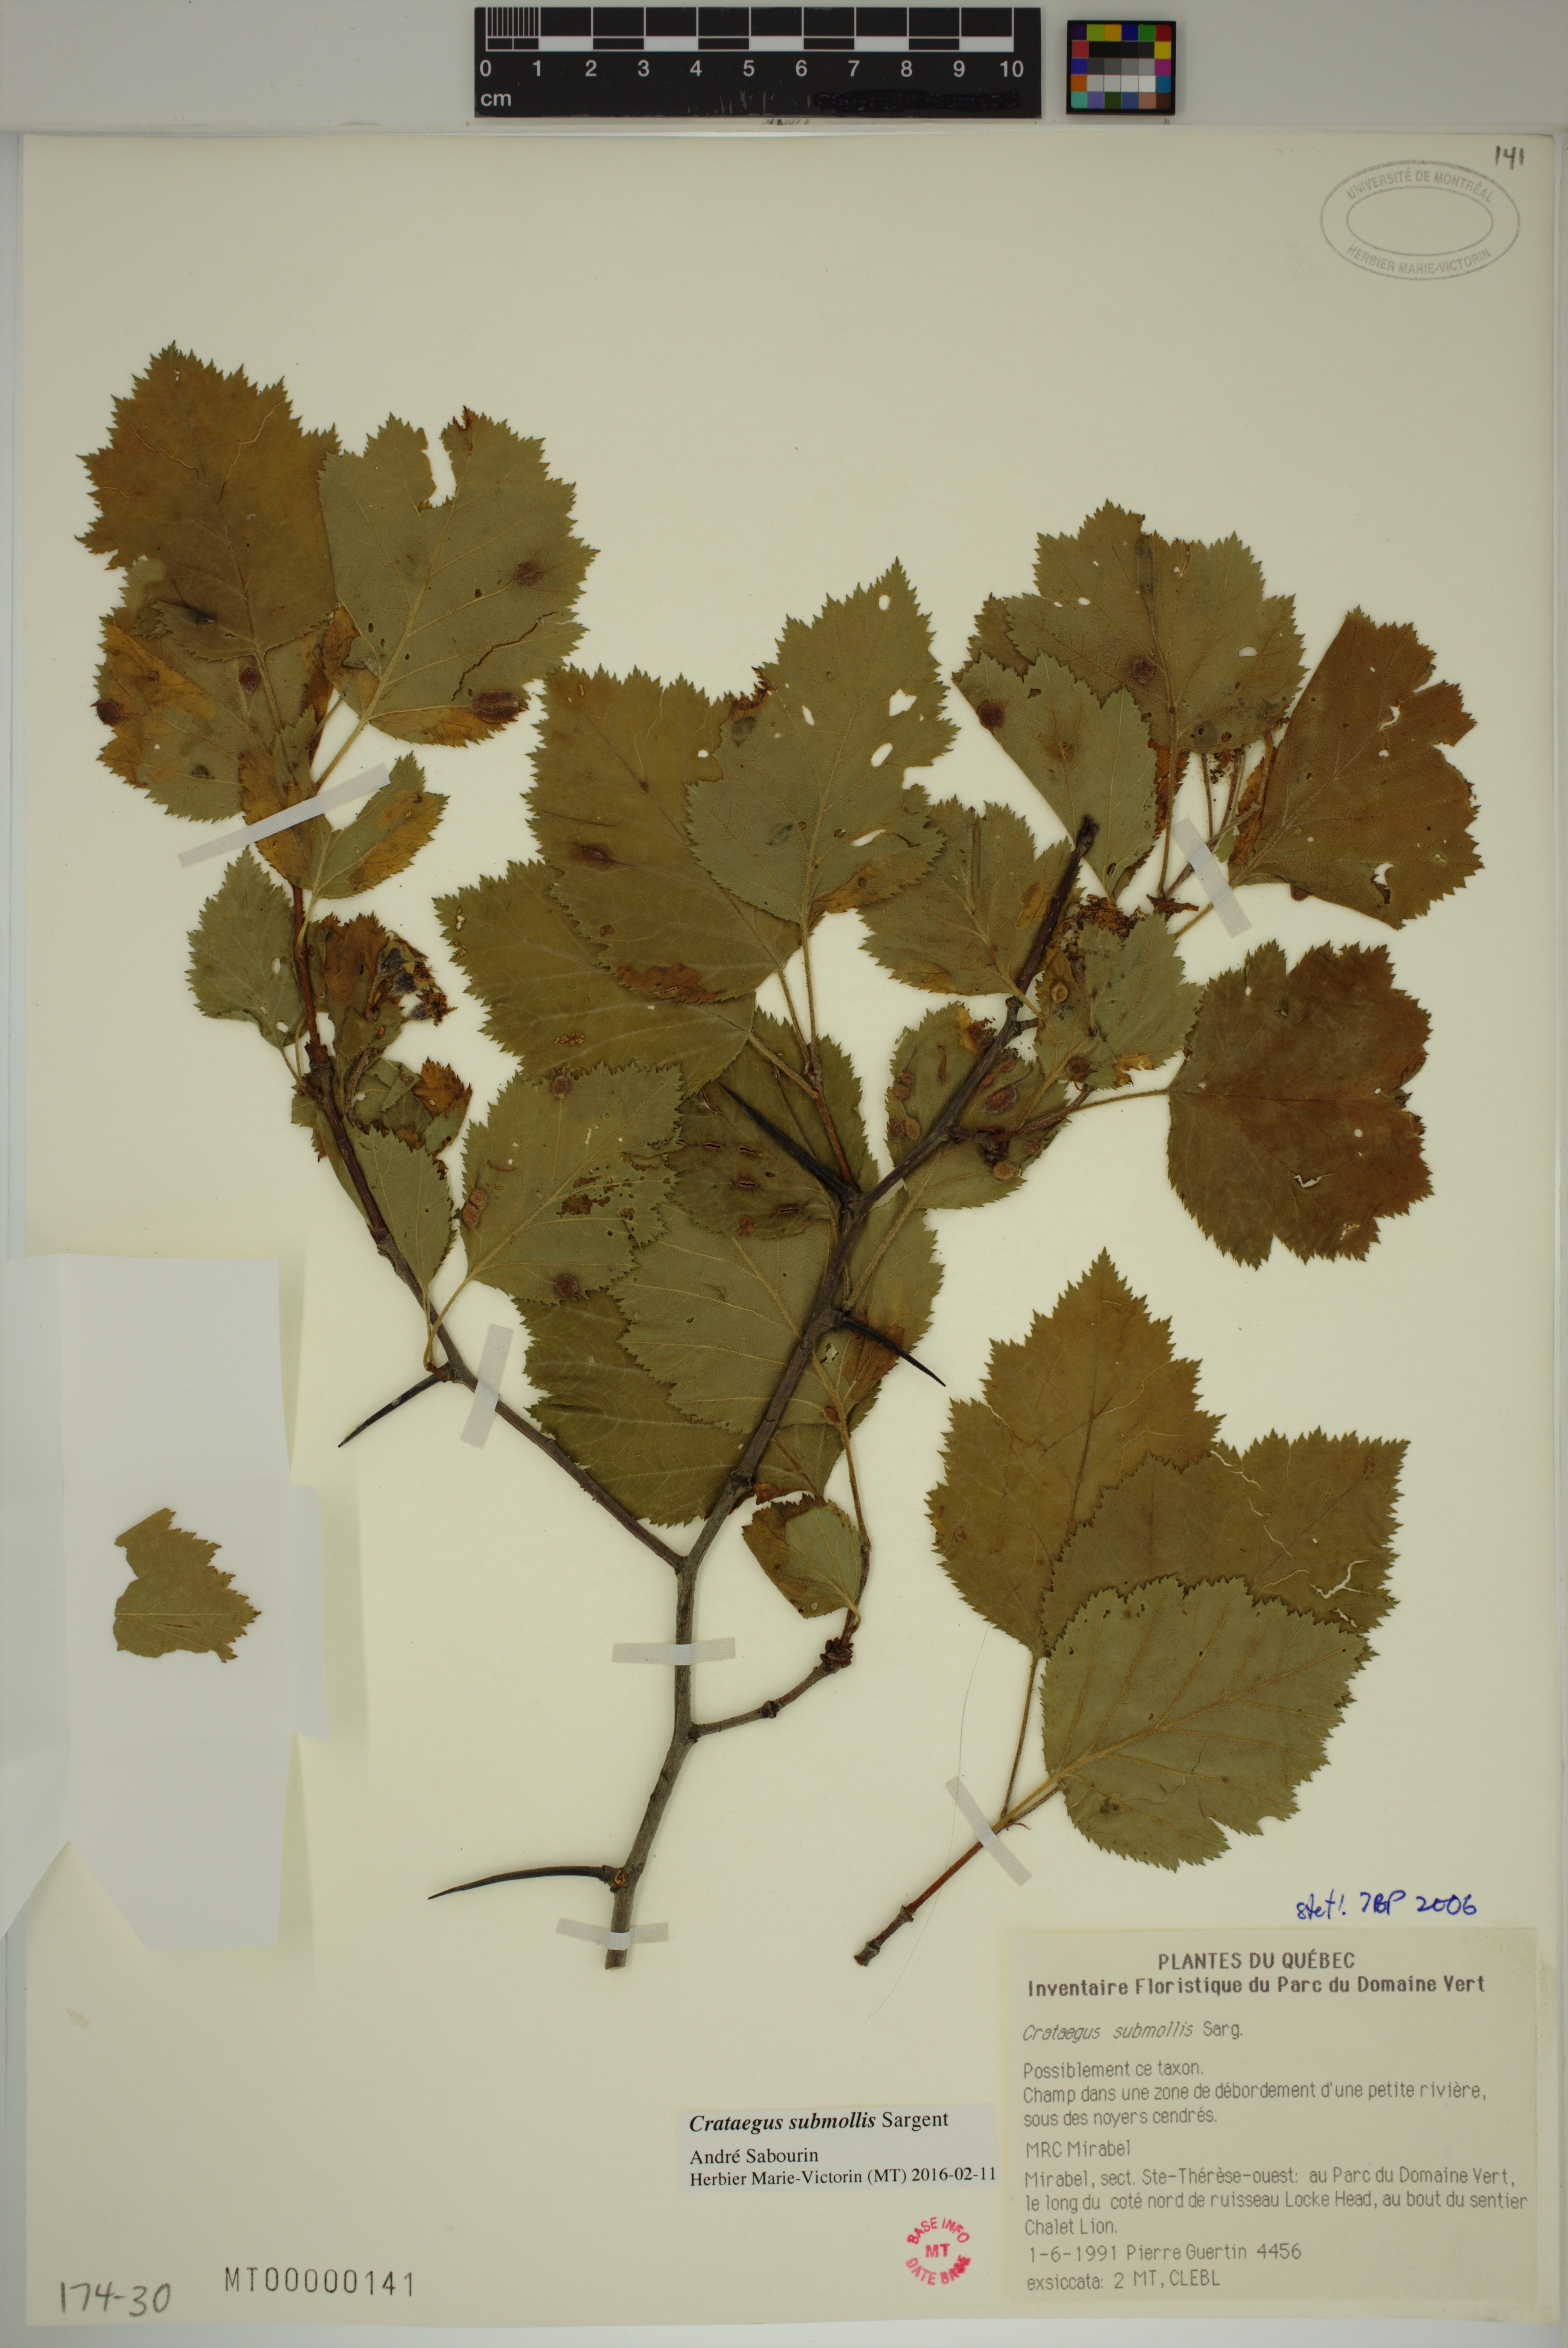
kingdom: Plantae
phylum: Tracheophyta
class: Magnoliopsida
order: Rosales
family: Rosaceae
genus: Crataegus
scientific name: Crataegus submollis
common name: Hairy cockspurthorn
